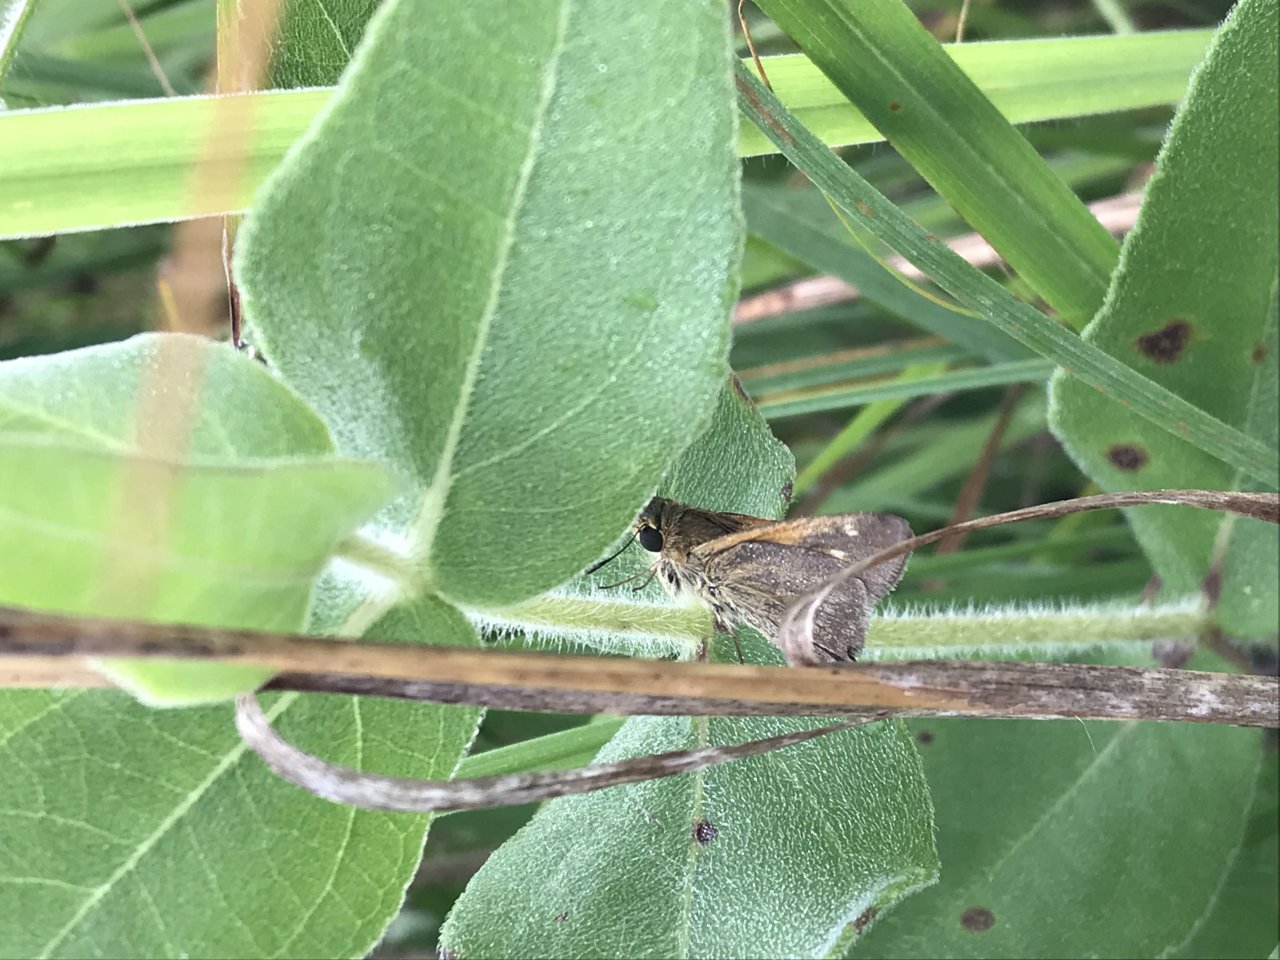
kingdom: Animalia
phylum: Arthropoda
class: Insecta
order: Lepidoptera
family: Hesperiidae
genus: Polites
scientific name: Polites themistocles
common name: Tawny-edged Skipper
